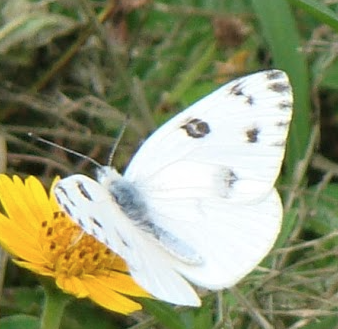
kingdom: Animalia
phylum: Arthropoda
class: Insecta
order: Lepidoptera
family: Pieridae
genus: Pontia
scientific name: Pontia protodice
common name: Checkered White
